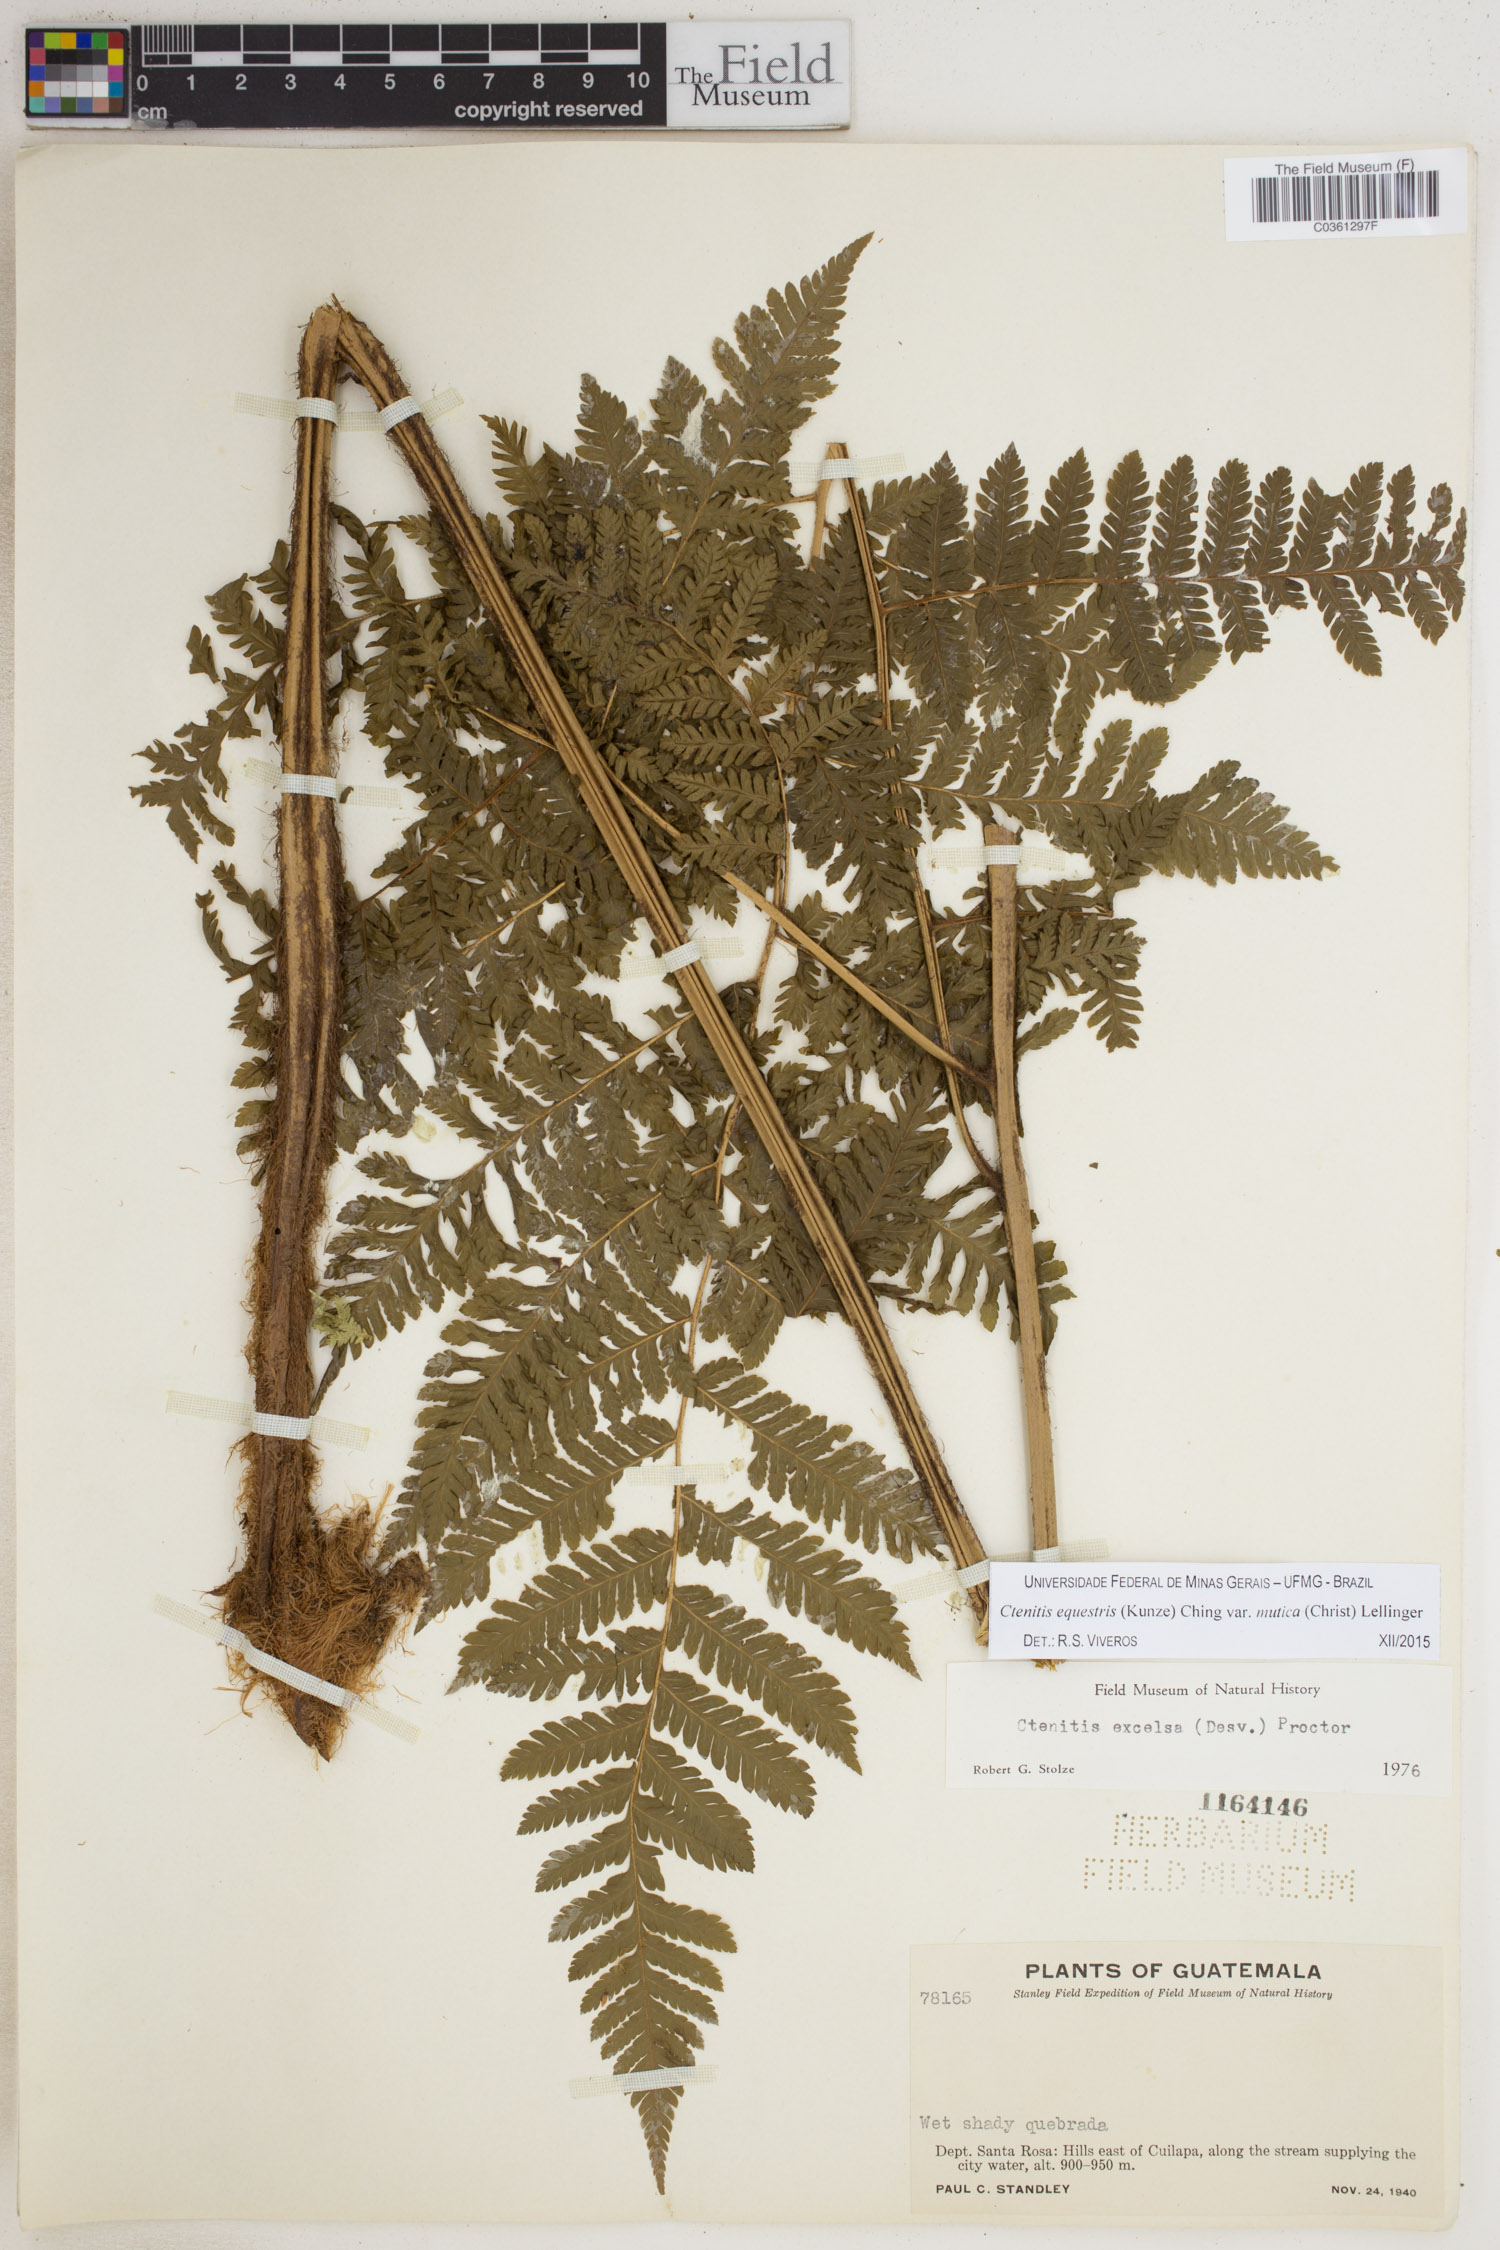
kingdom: Plantae
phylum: Tracheophyta
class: Polypodiopsida
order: Polypodiales
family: Dryopteridaceae
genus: Ctenitis
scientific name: Ctenitis equestris
